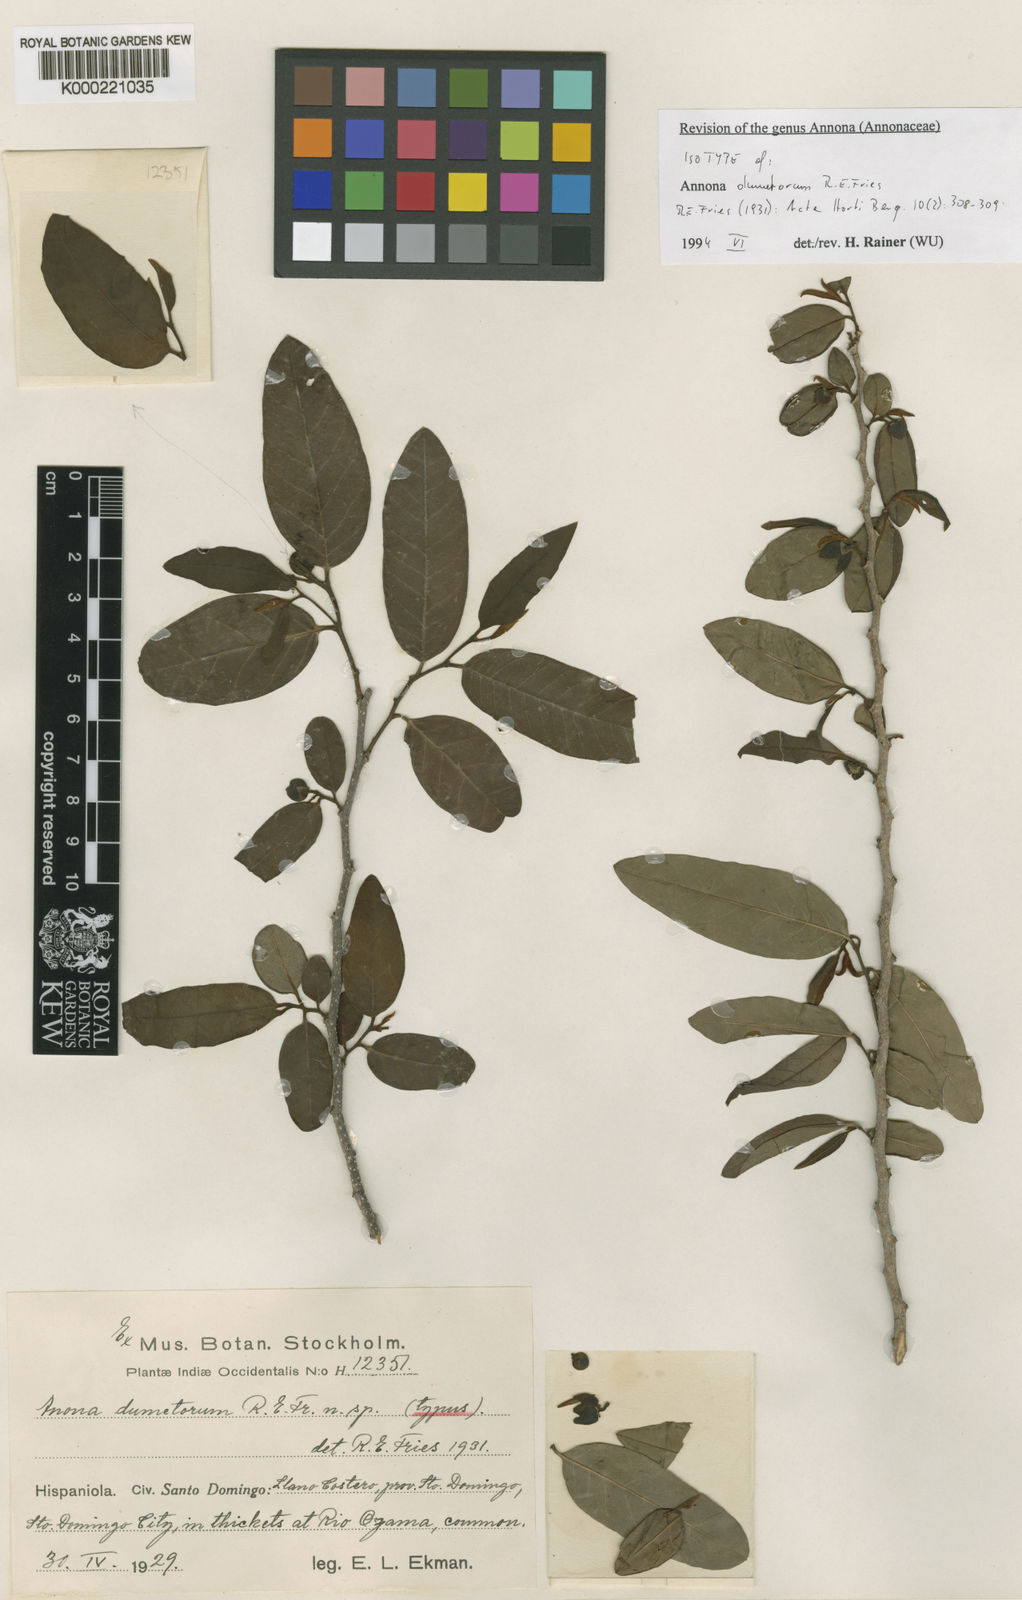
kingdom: Plantae
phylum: Tracheophyta
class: Magnoliopsida
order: Magnoliales
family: Annonaceae
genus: Annona
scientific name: Annona rosei
